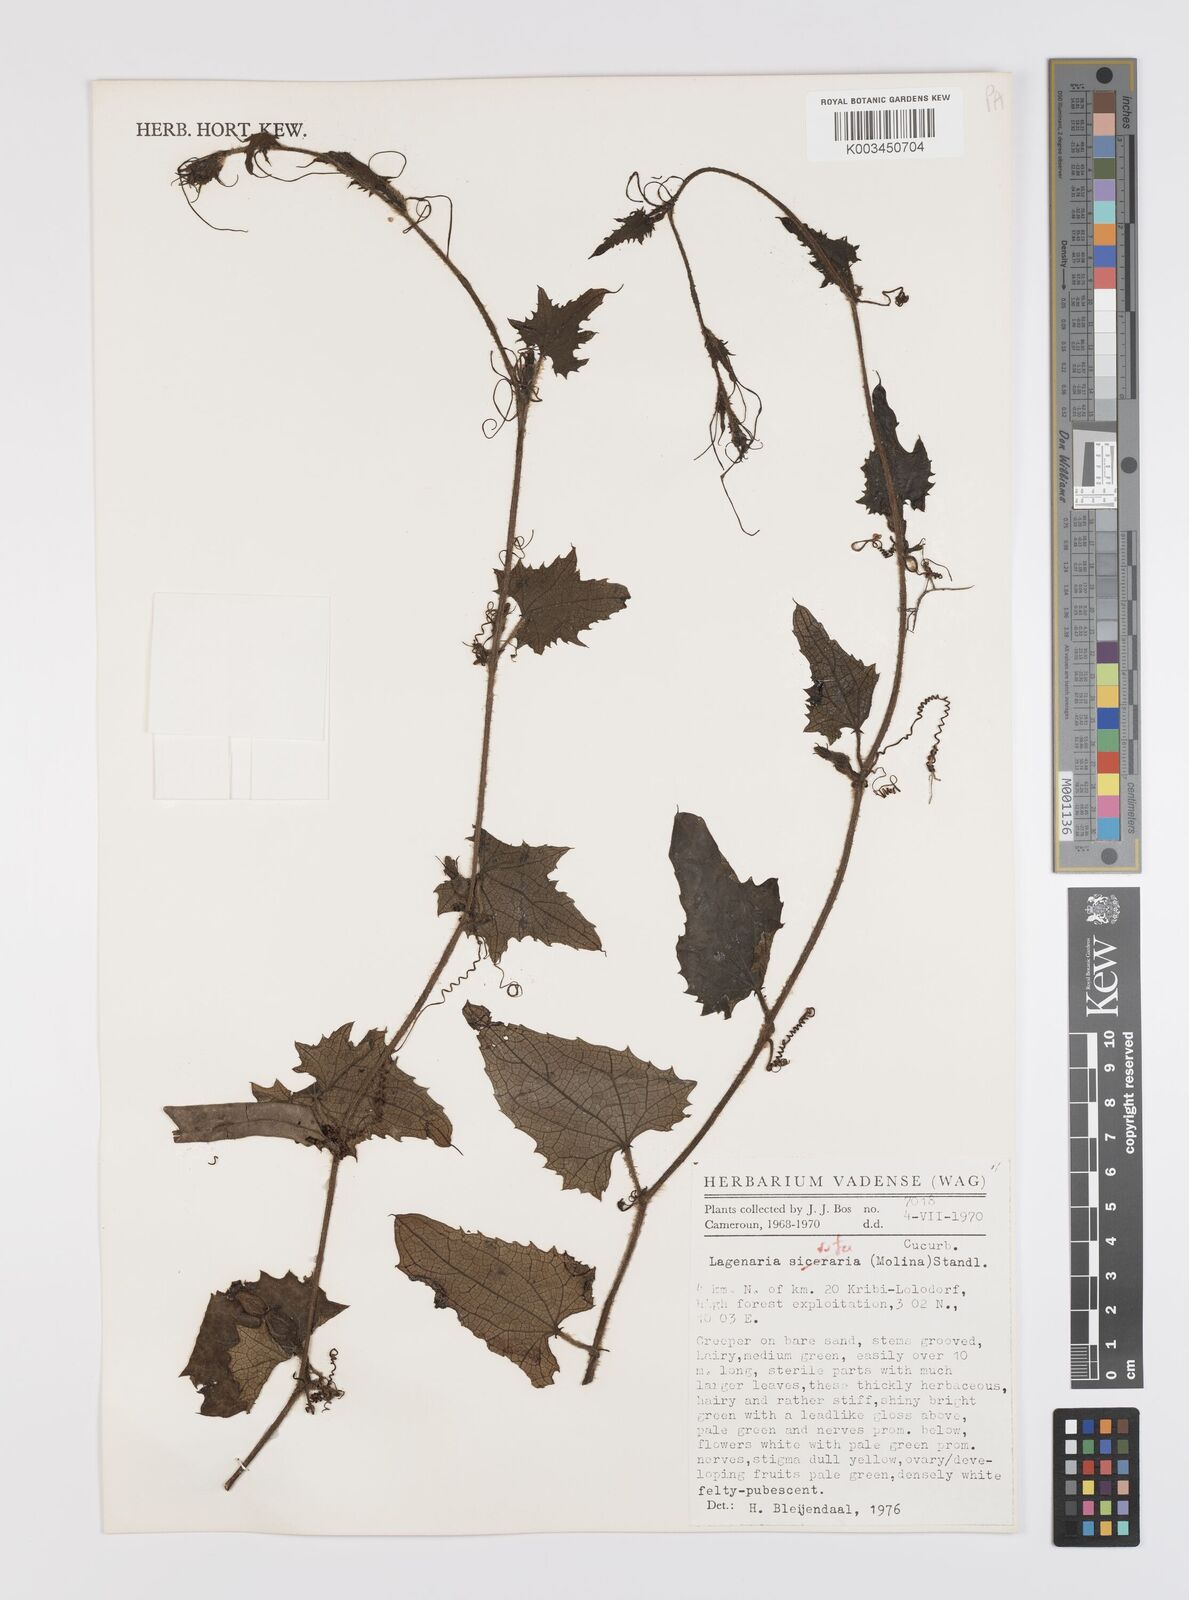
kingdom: Plantae
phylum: Tracheophyta
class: Magnoliopsida
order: Cucurbitales
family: Cucurbitaceae
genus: Lagenaria
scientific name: Lagenaria rufa
